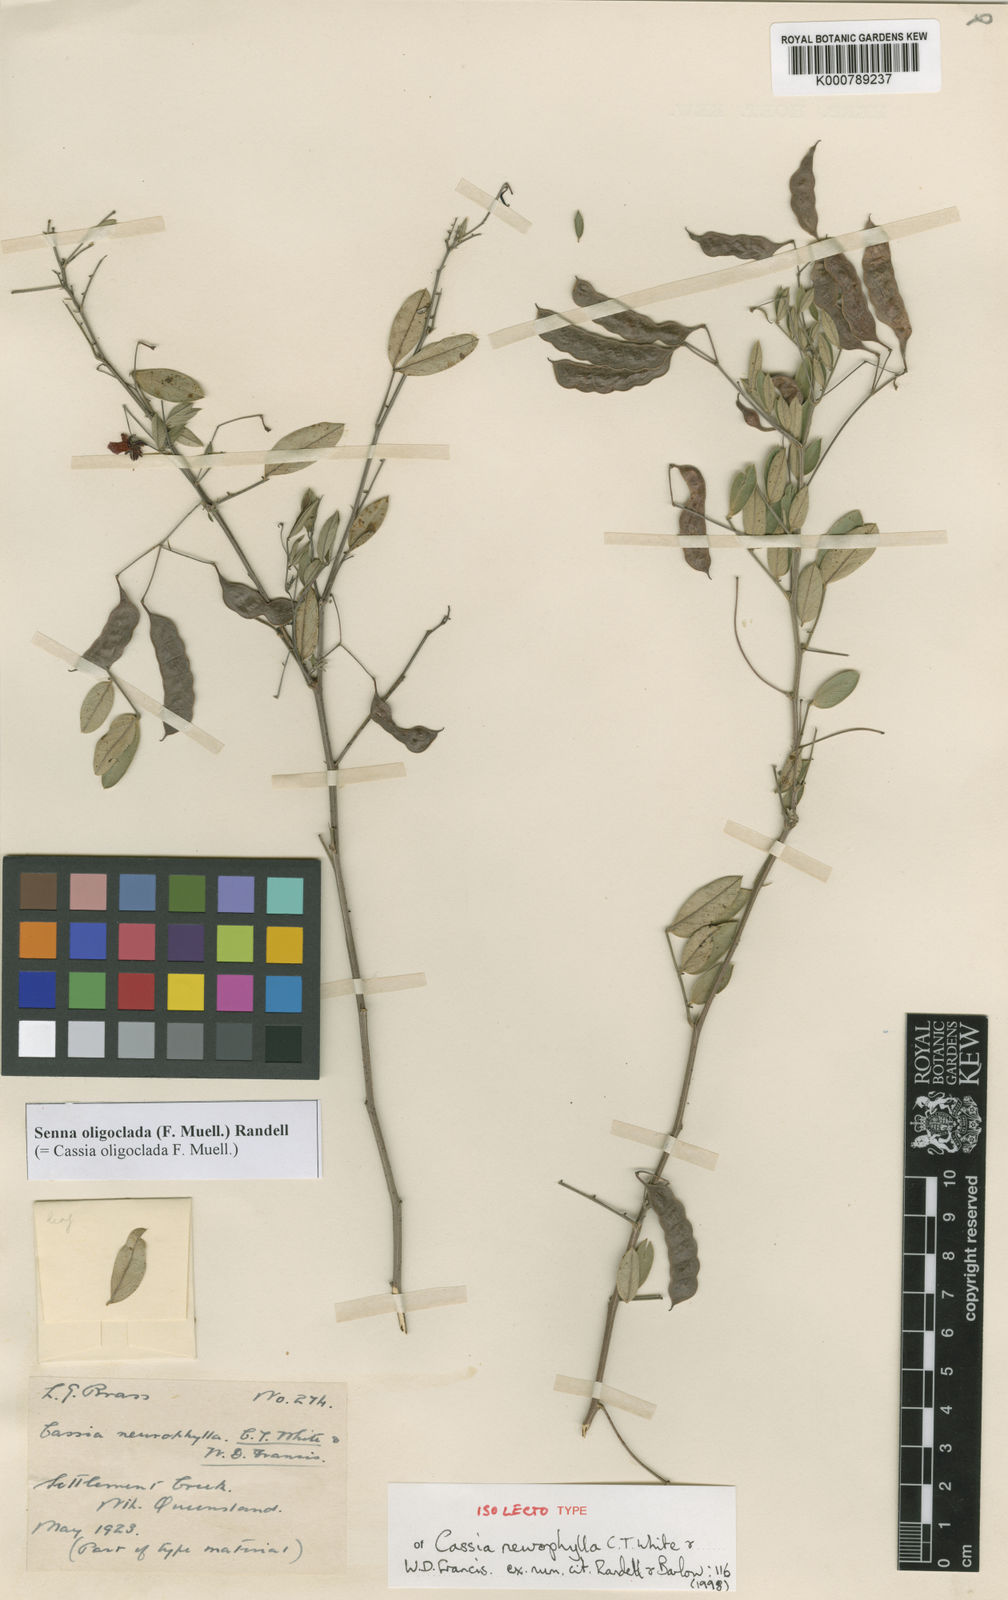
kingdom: Plantae
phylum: Tracheophyta
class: Magnoliopsida
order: Fabales
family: Fabaceae
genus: Senna
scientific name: Senna oligoclada
